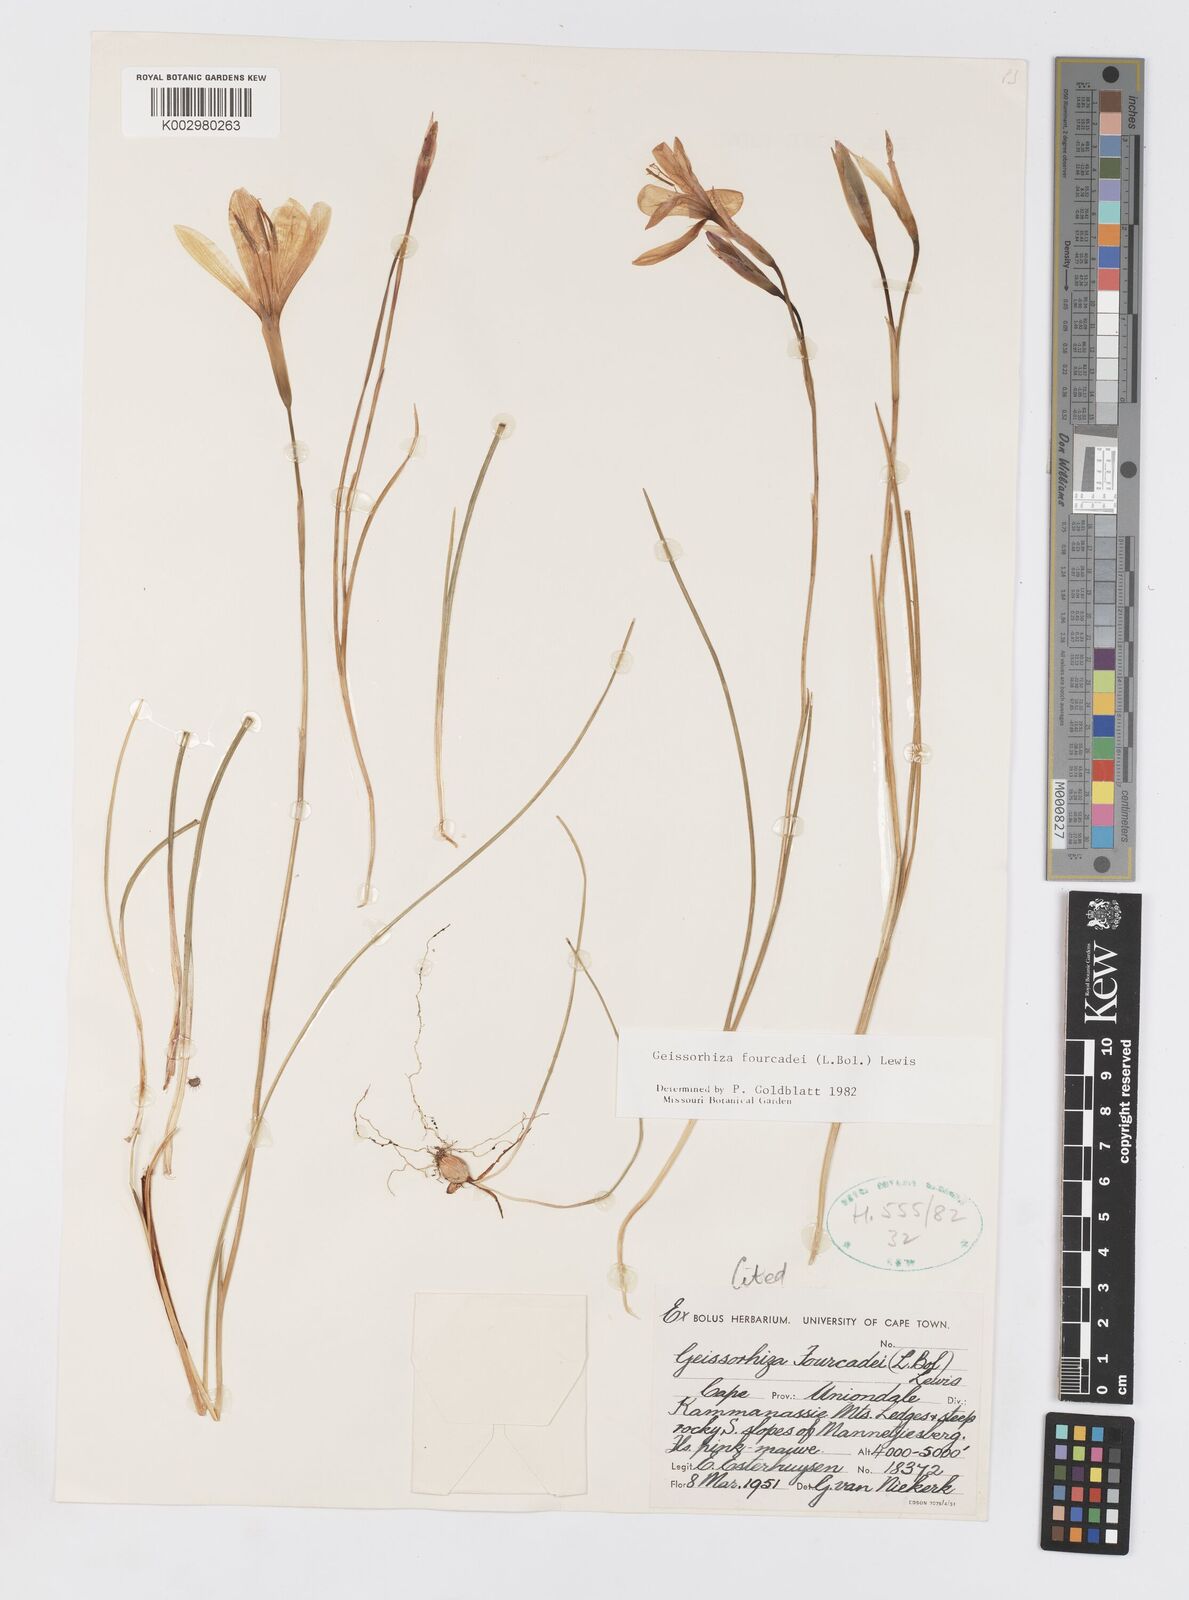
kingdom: Plantae
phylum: Tracheophyta
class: Liliopsida
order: Asparagales
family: Iridaceae
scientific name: Iridaceae
